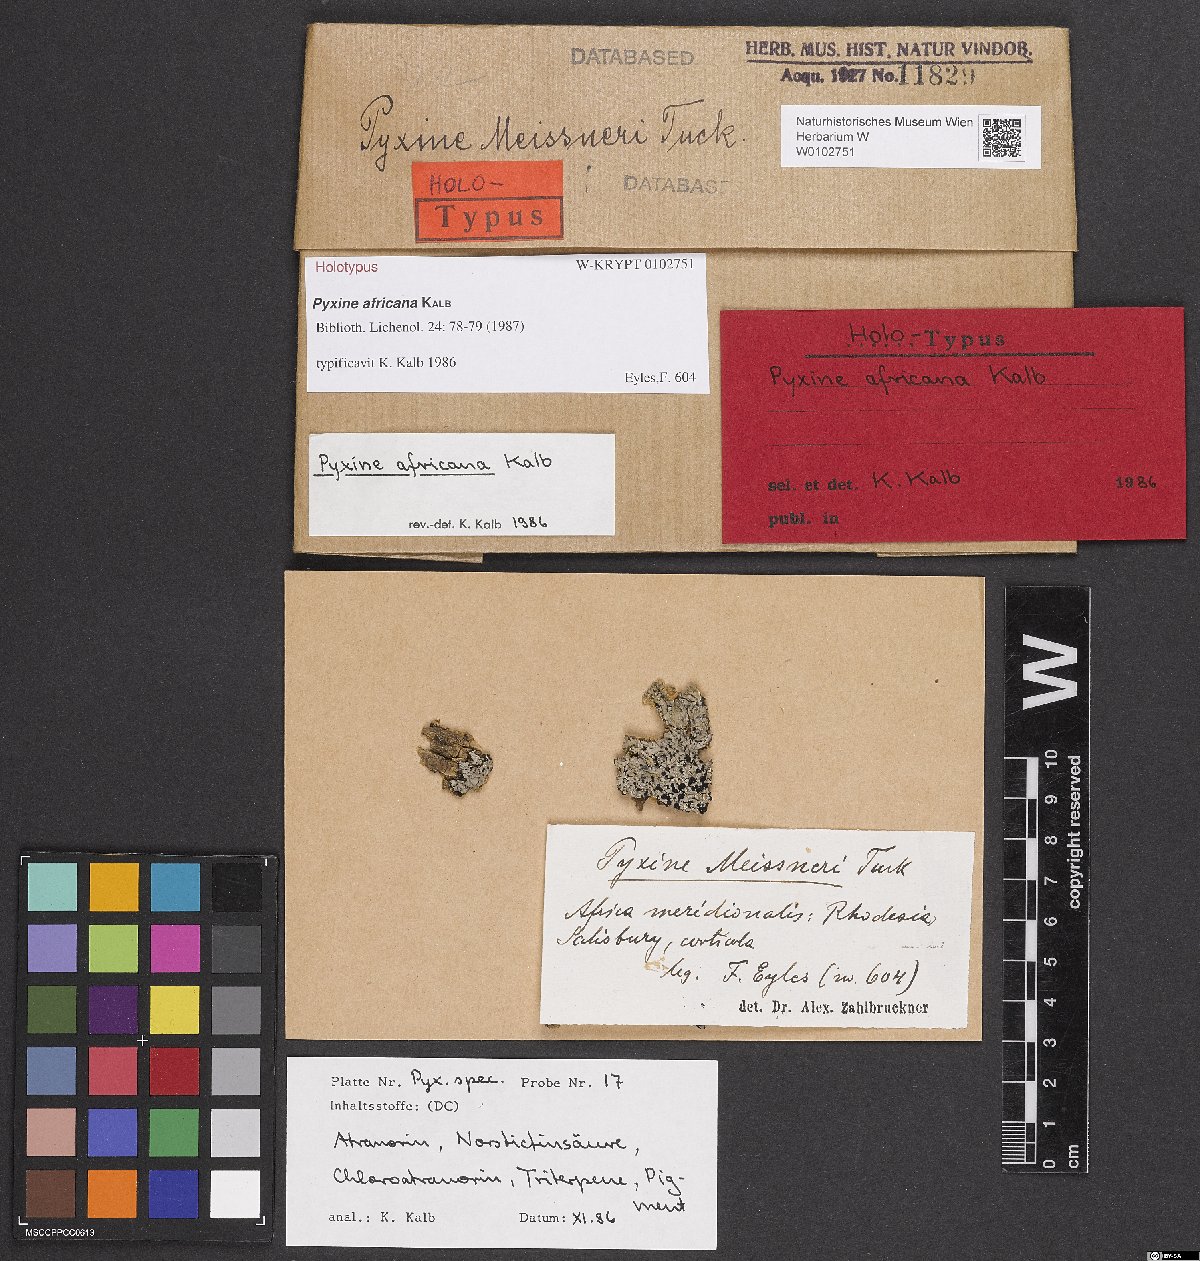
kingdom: Fungi
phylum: Ascomycota
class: Lecanoromycetes
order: Caliciales
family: Caliciaceae
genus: Pyxine
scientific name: Pyxine africana
